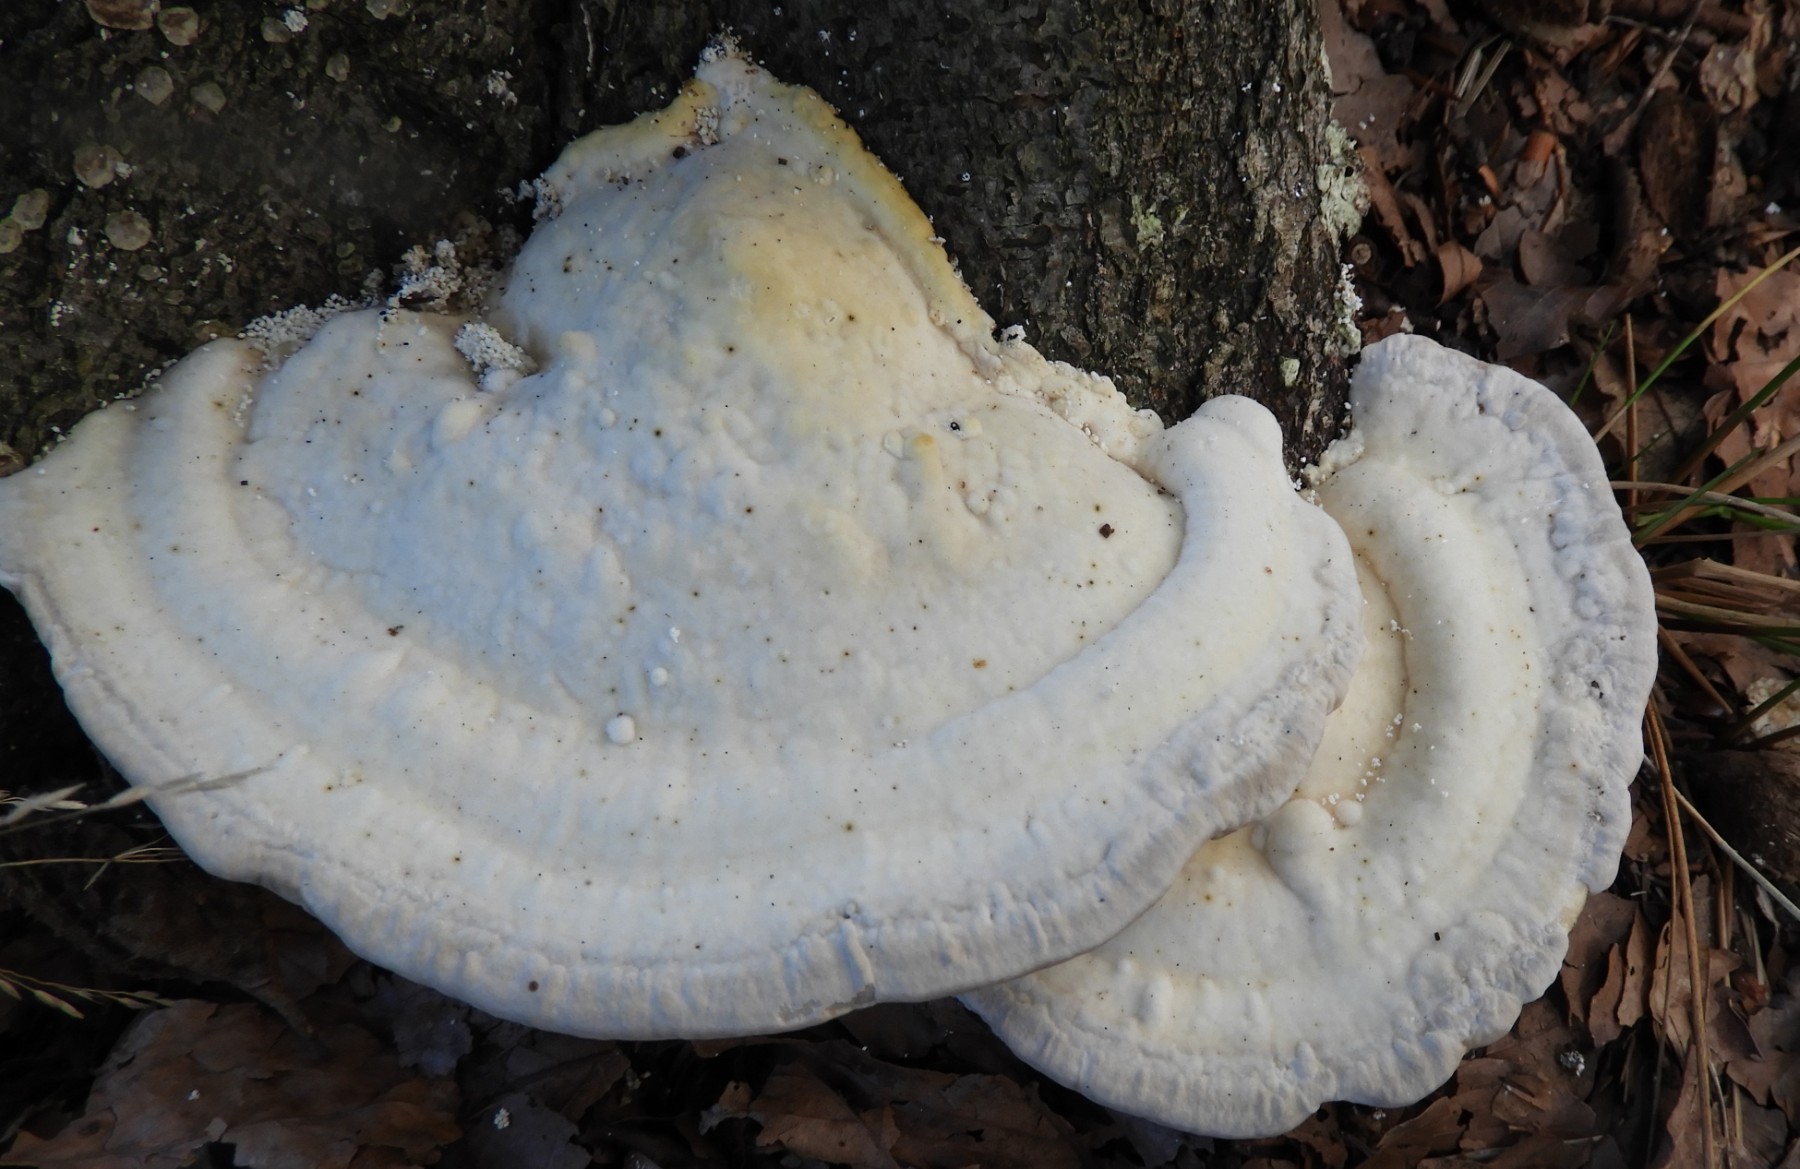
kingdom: Fungi
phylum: Basidiomycota
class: Agaricomycetes
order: Polyporales
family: Polyporaceae
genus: Trametes
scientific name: Trametes gibbosa
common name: puklet læderporesvamp
